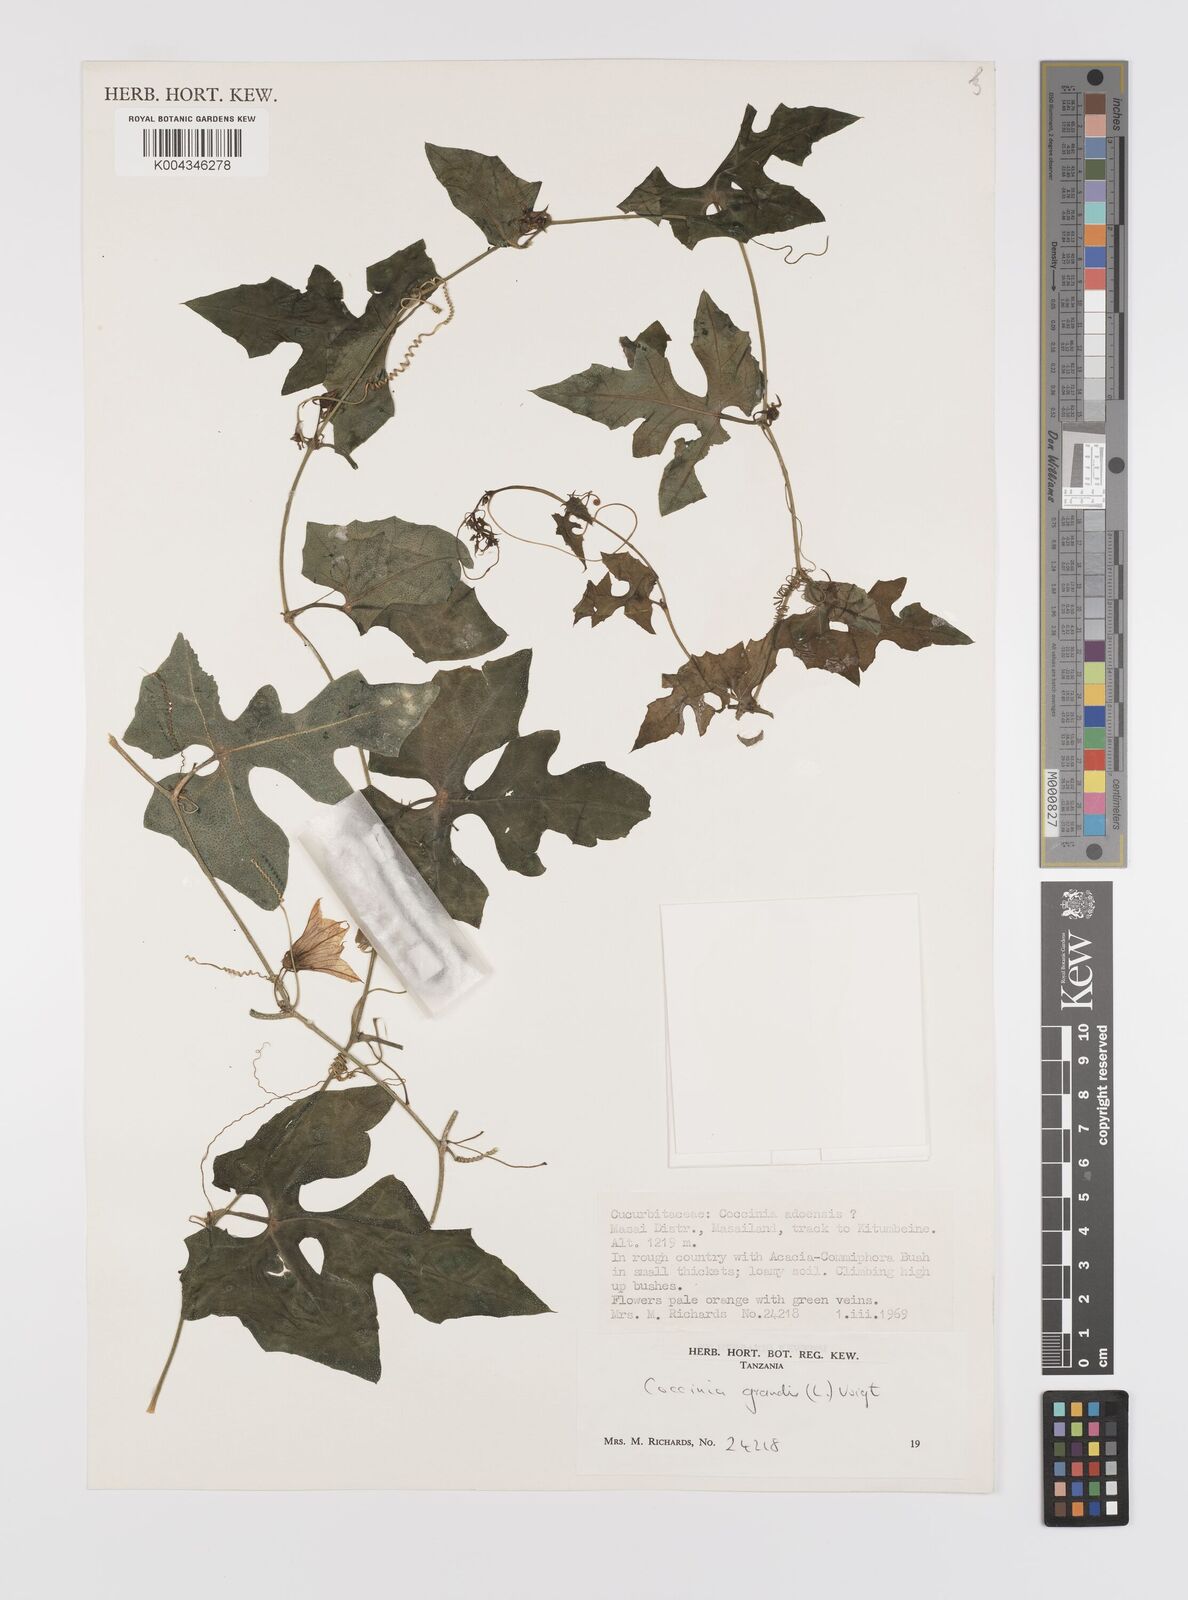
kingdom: Plantae
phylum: Tracheophyta
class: Magnoliopsida
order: Cucurbitales
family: Cucurbitaceae
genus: Coccinia
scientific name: Coccinia grandis
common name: Ivy gourd
